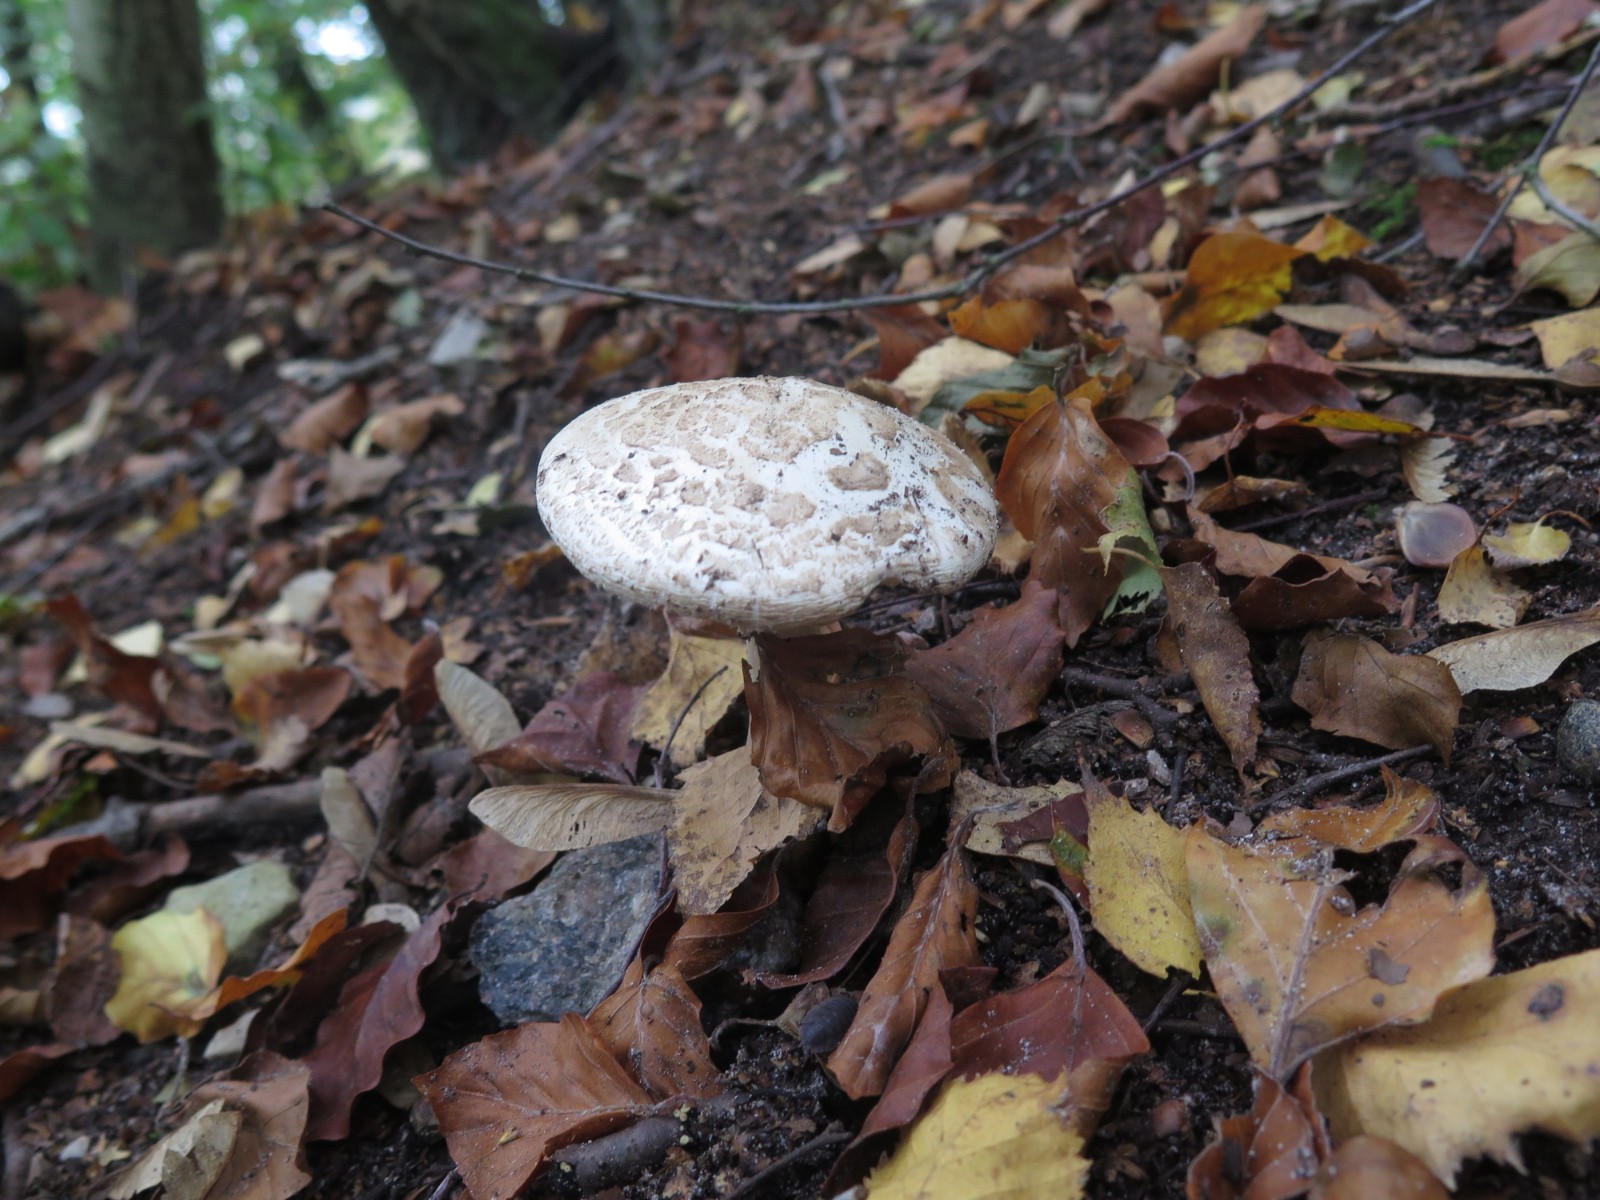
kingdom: Fungi
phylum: Basidiomycota
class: Agaricomycetes
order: Agaricales
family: Amanitaceae
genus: Amanita
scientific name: Amanita citrina
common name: False death-cap
